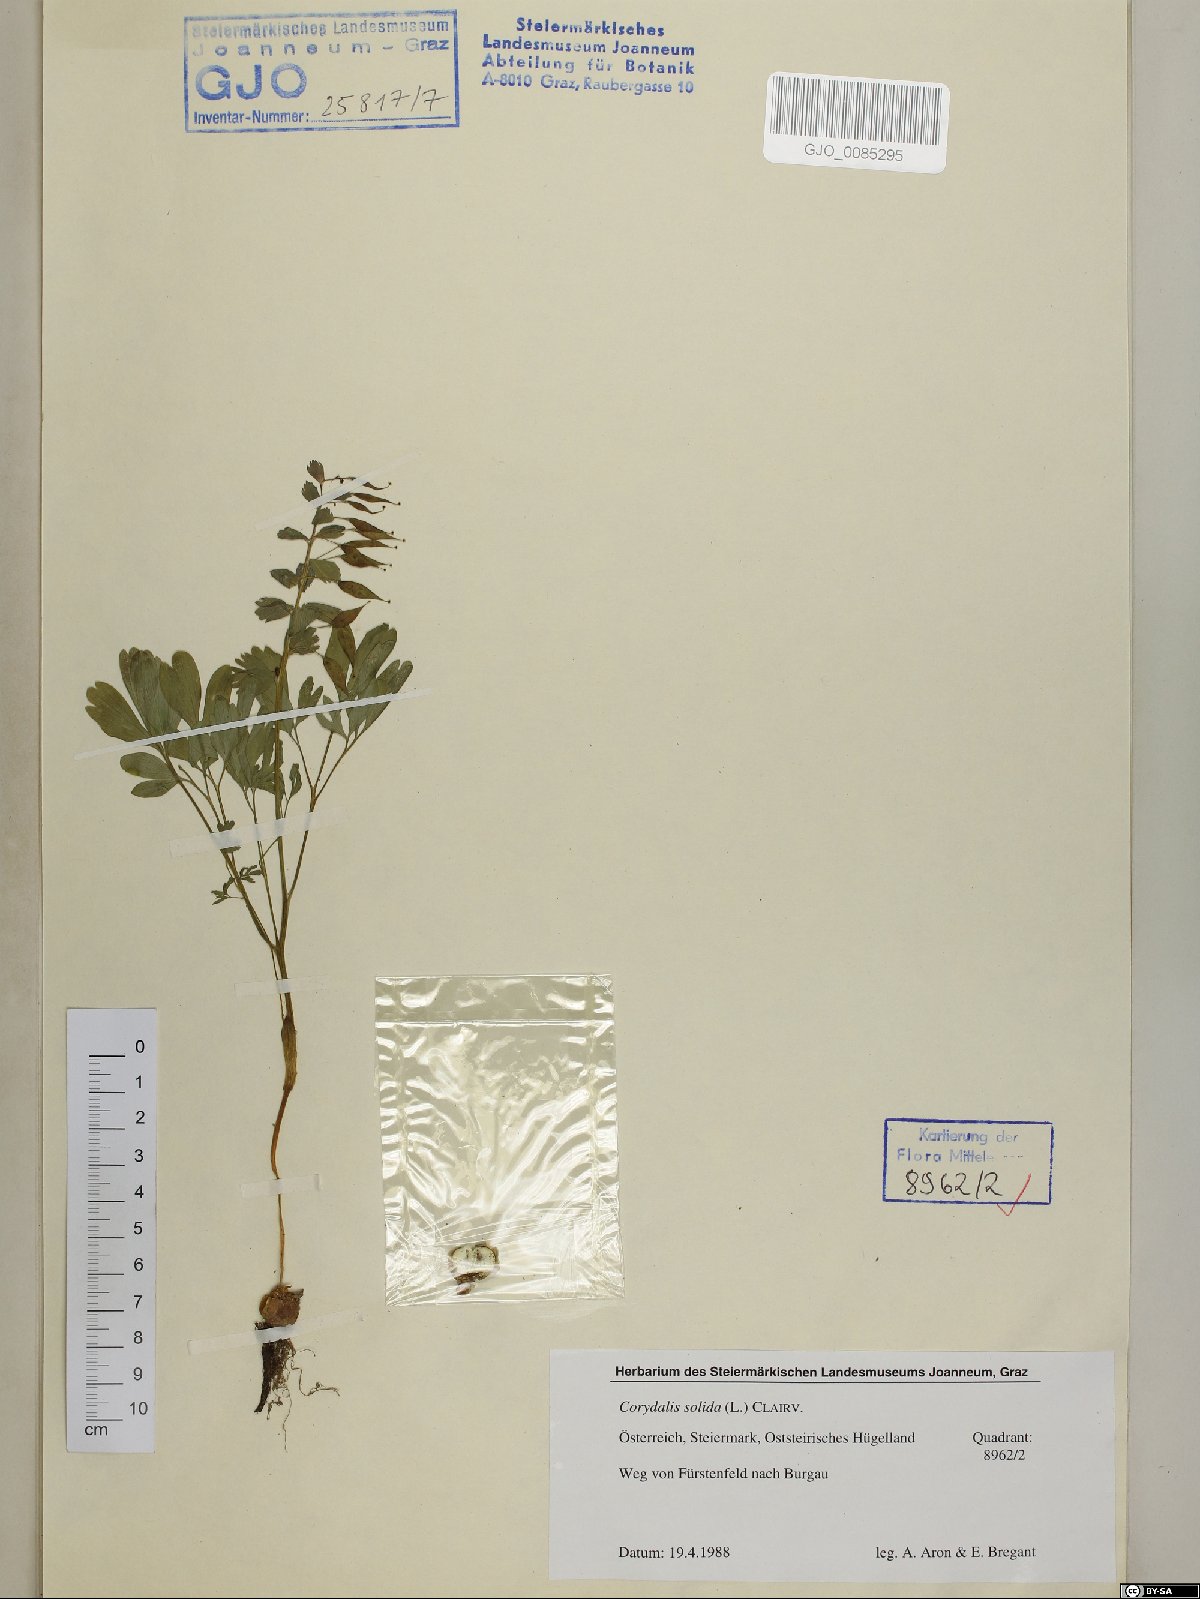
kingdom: Plantae
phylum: Tracheophyta
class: Magnoliopsida
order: Ranunculales
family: Papaveraceae
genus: Corydalis
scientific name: Corydalis solida
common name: Bird-in-a-bush
